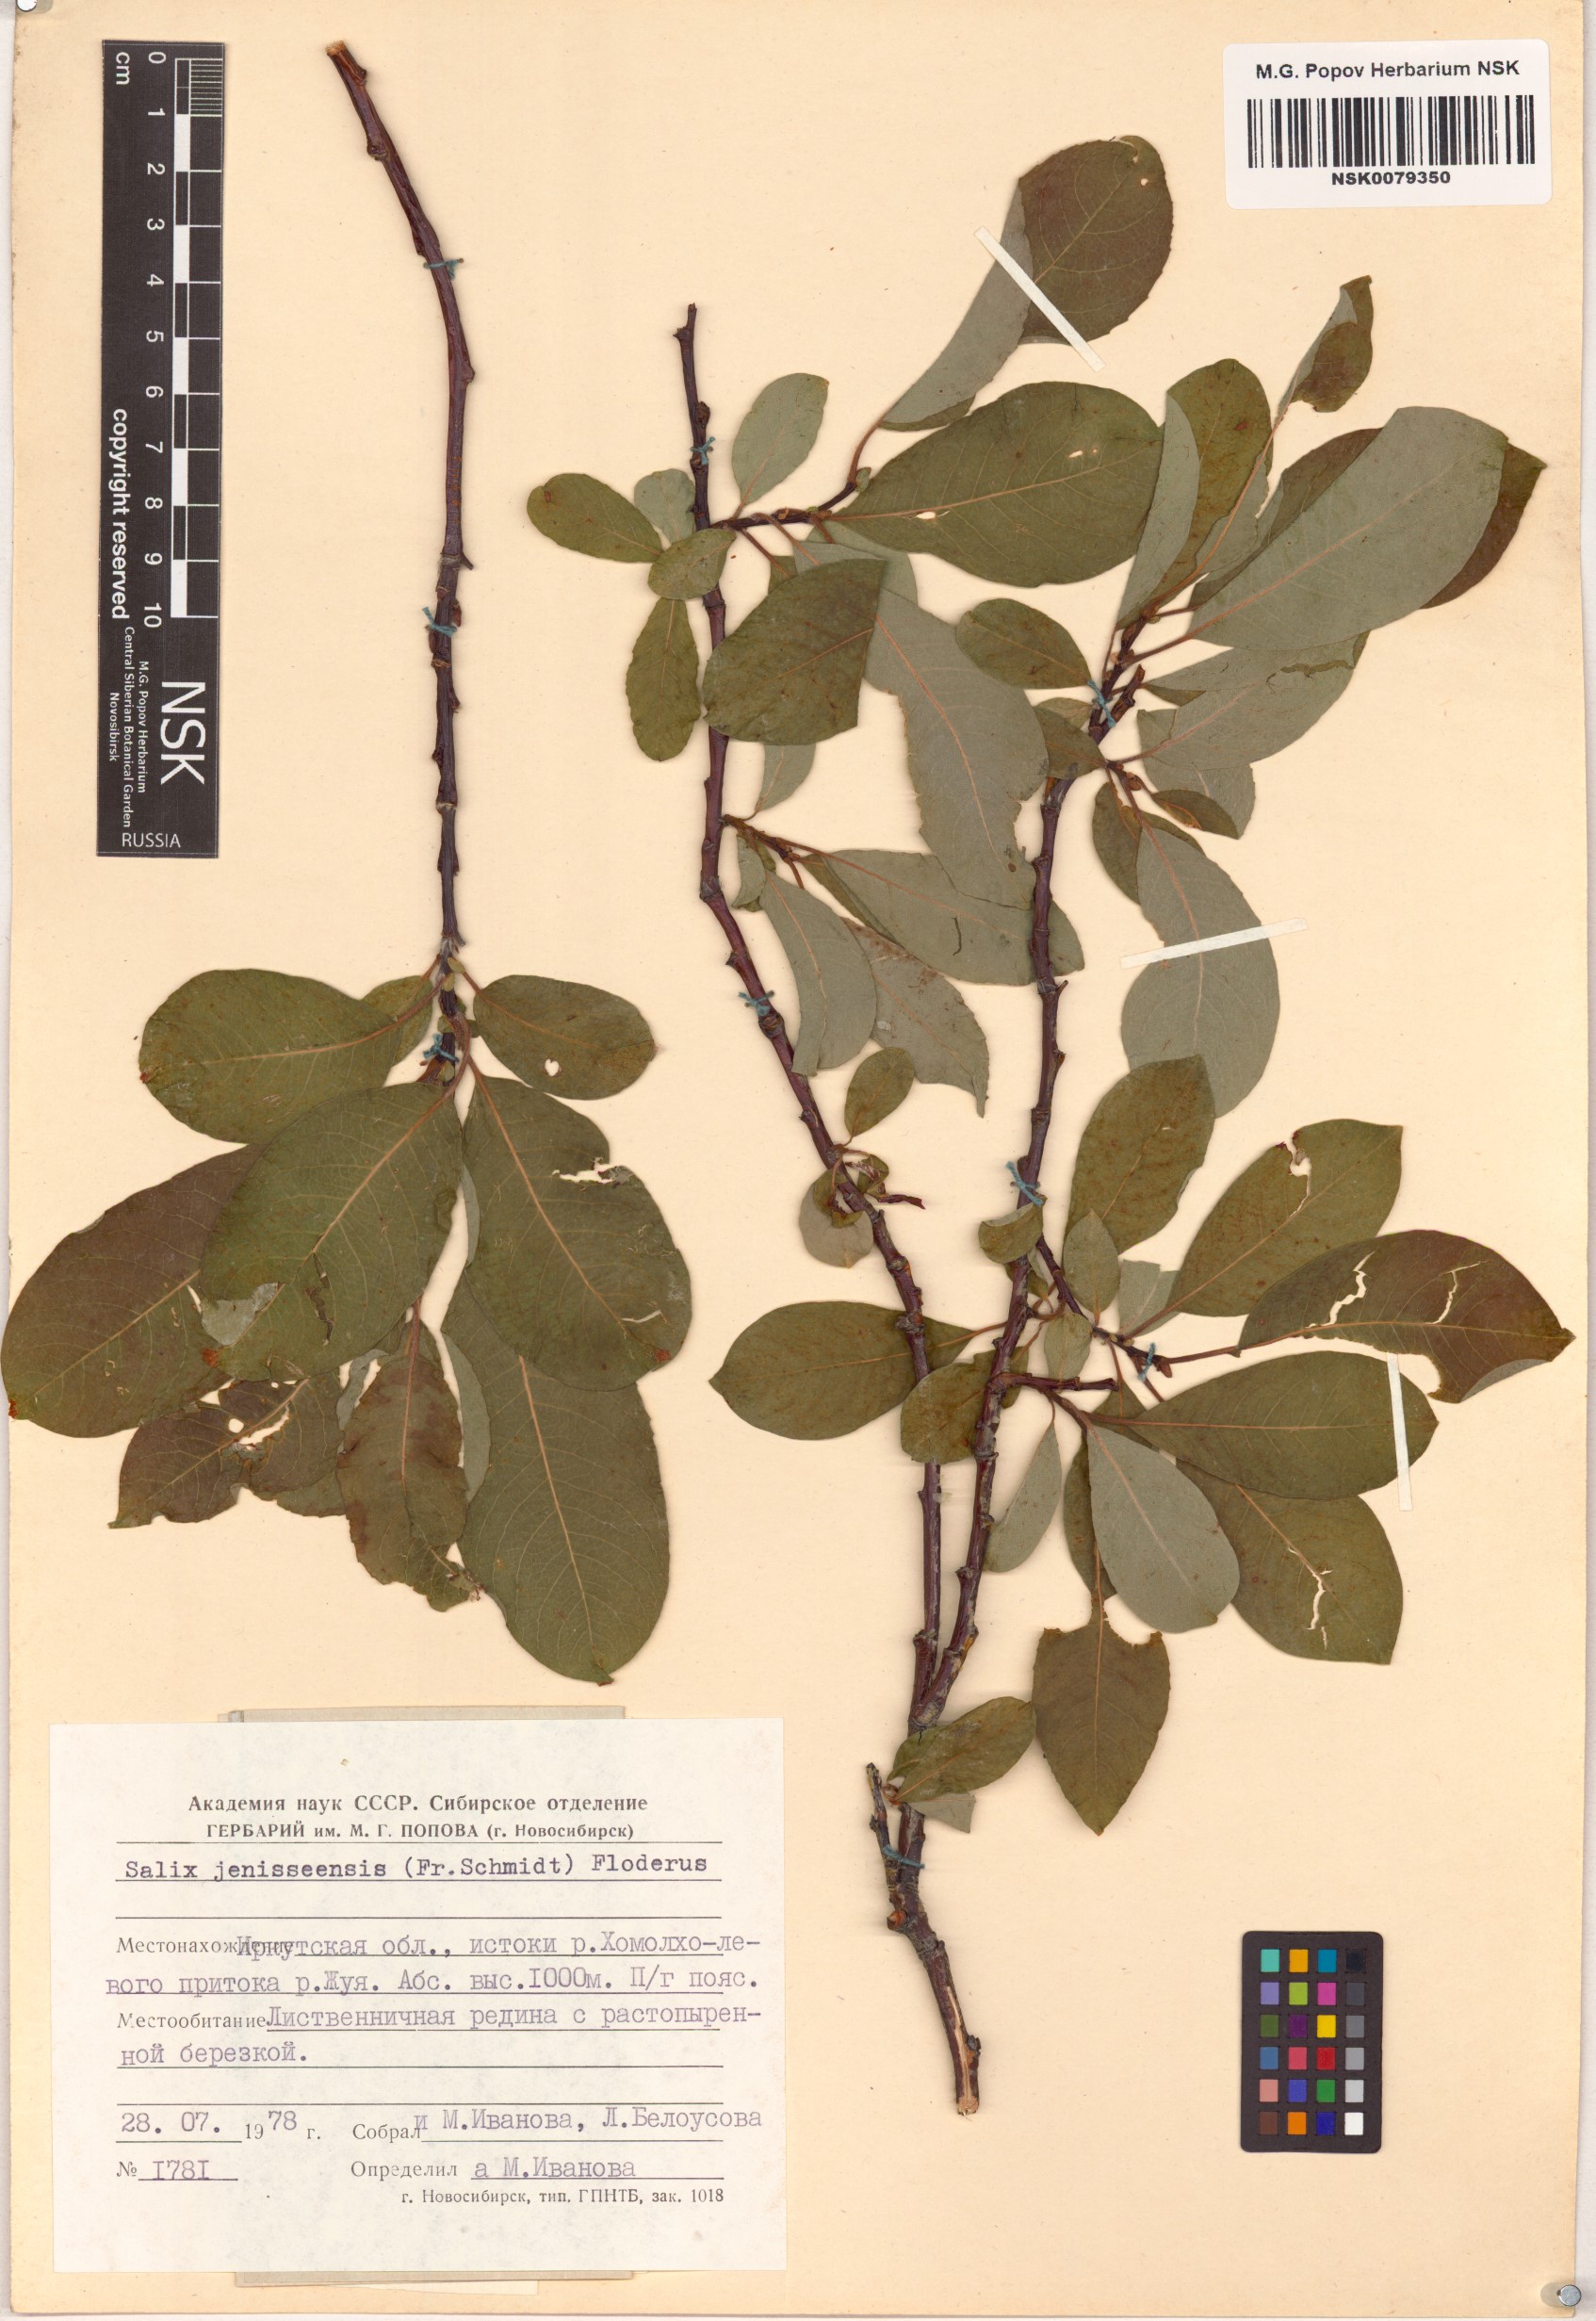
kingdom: Plantae
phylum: Tracheophyta
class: Magnoliopsida
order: Malpighiales
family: Salicaceae
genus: Salix
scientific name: Salix jenisseensis
